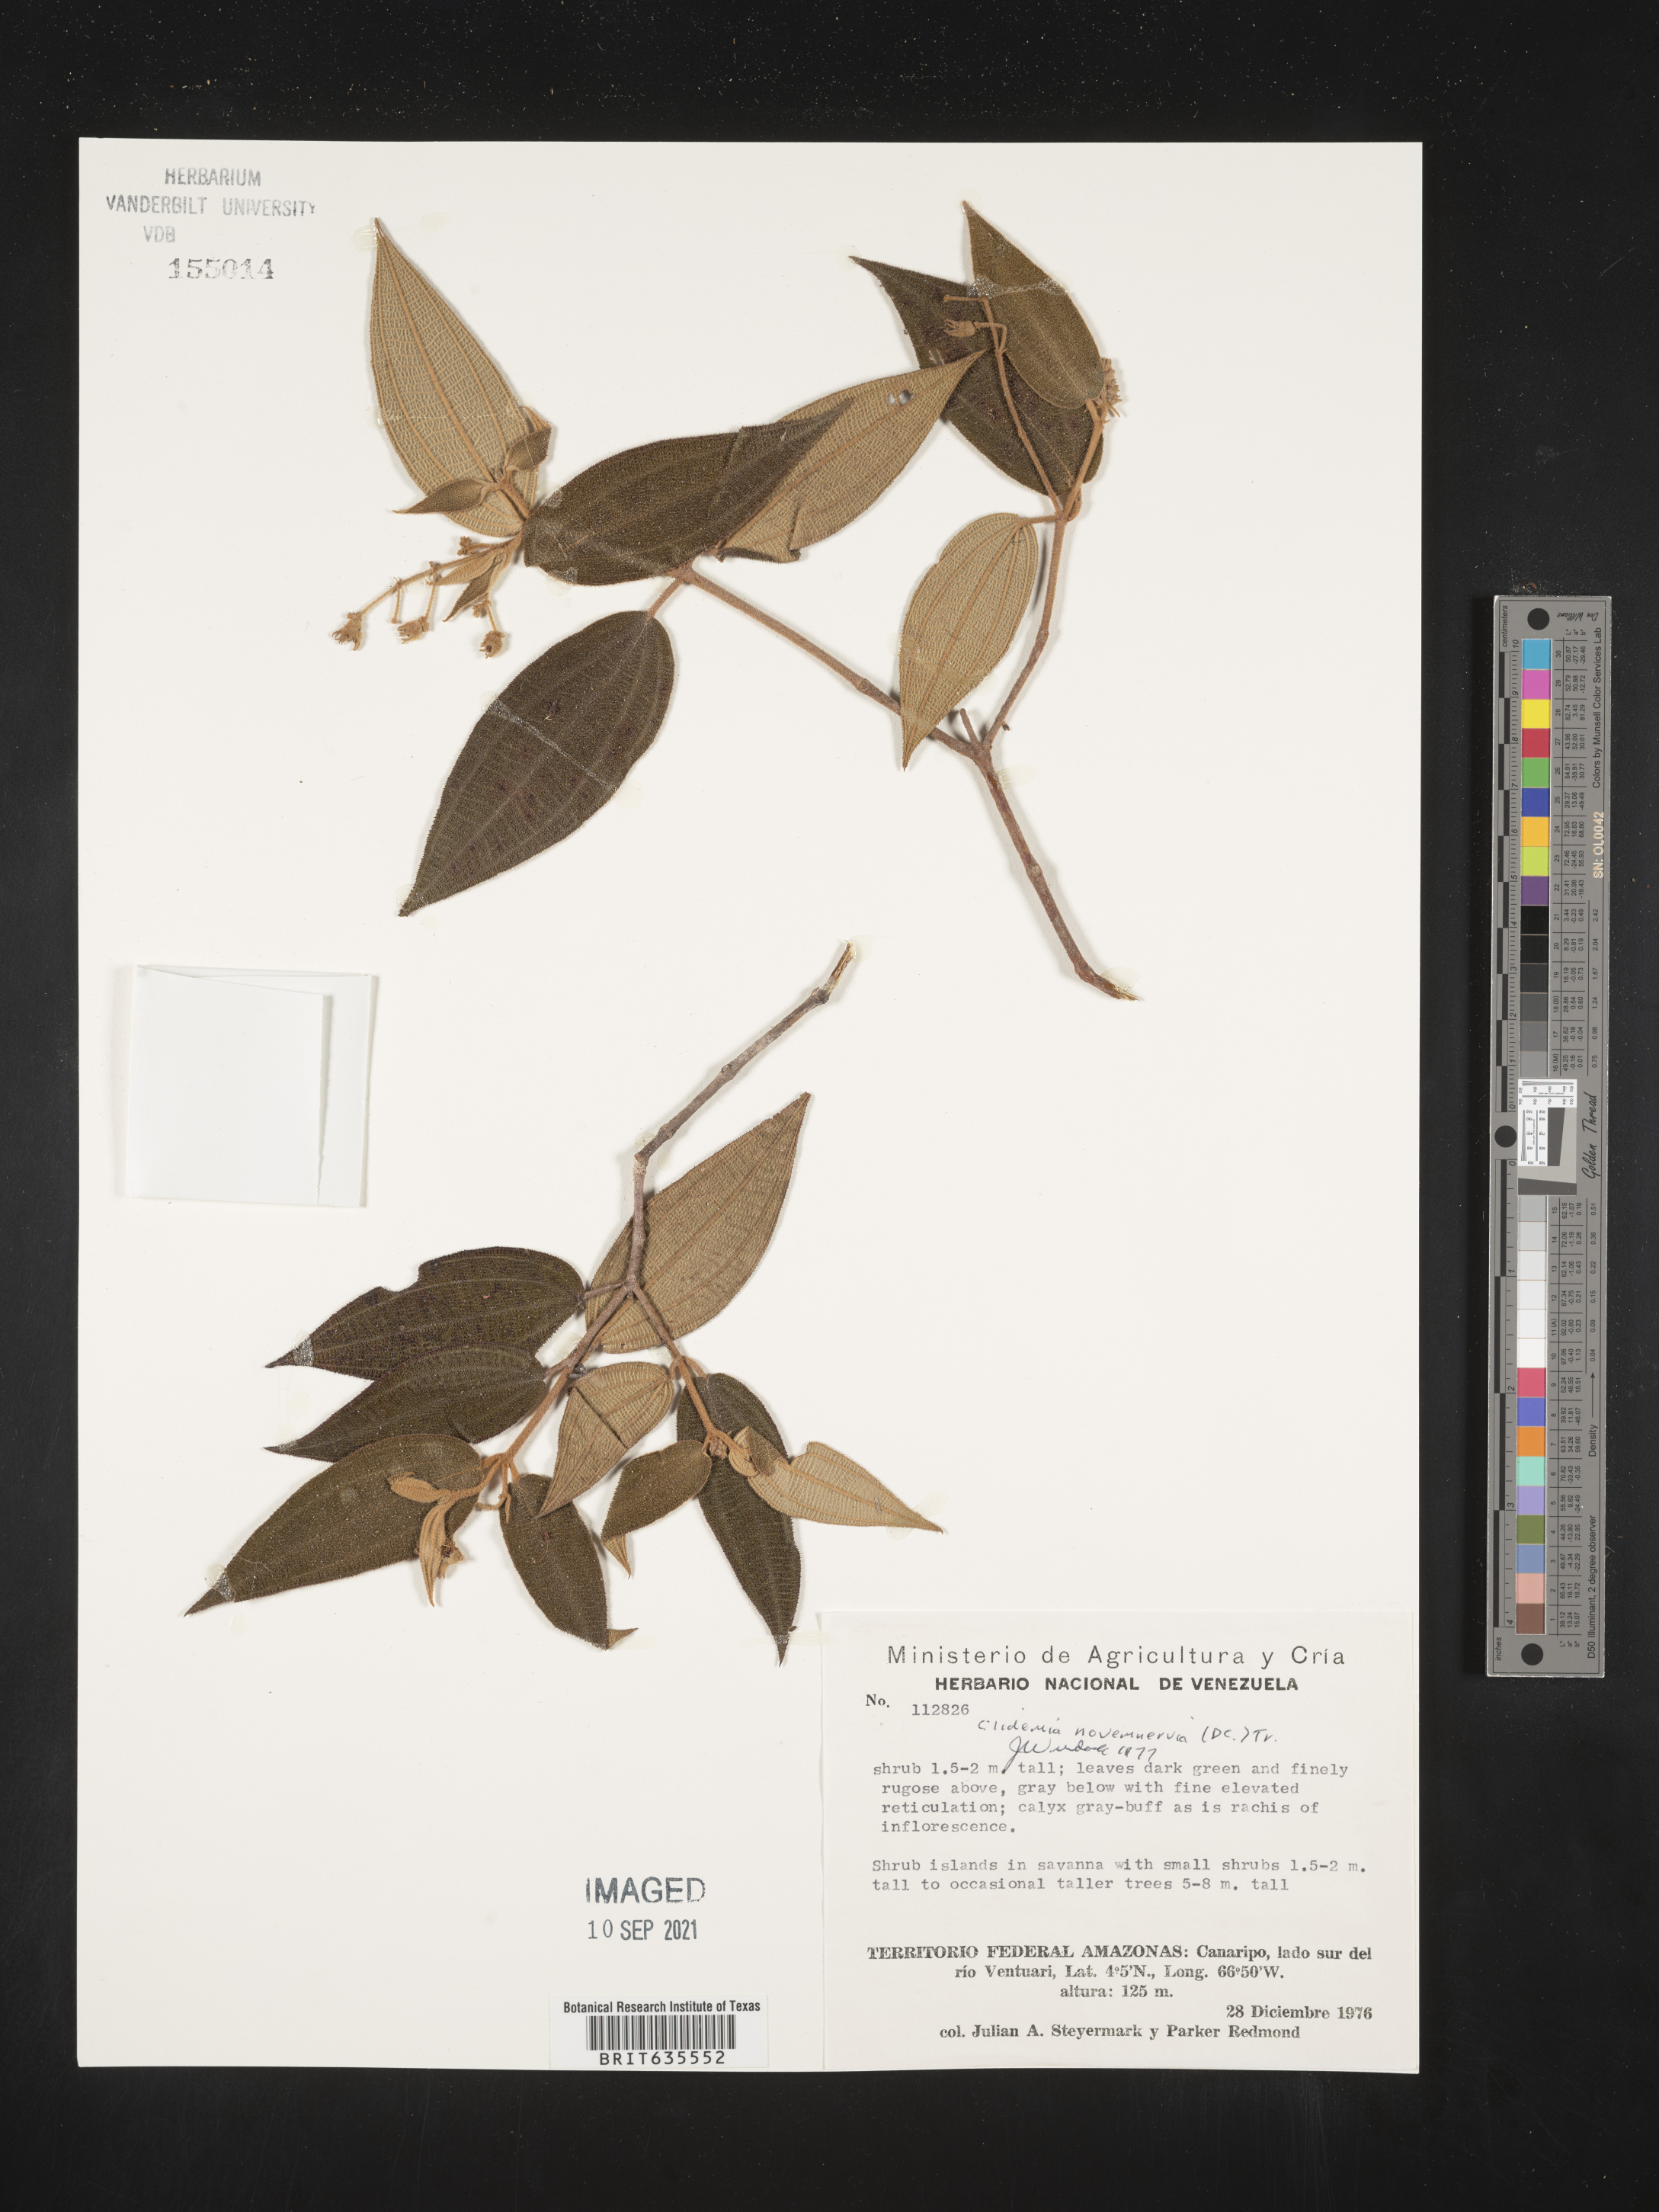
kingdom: Plantae
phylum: Tracheophyta
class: Magnoliopsida
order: Myrtales
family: Melastomataceae
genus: Miconia
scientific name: Miconia
